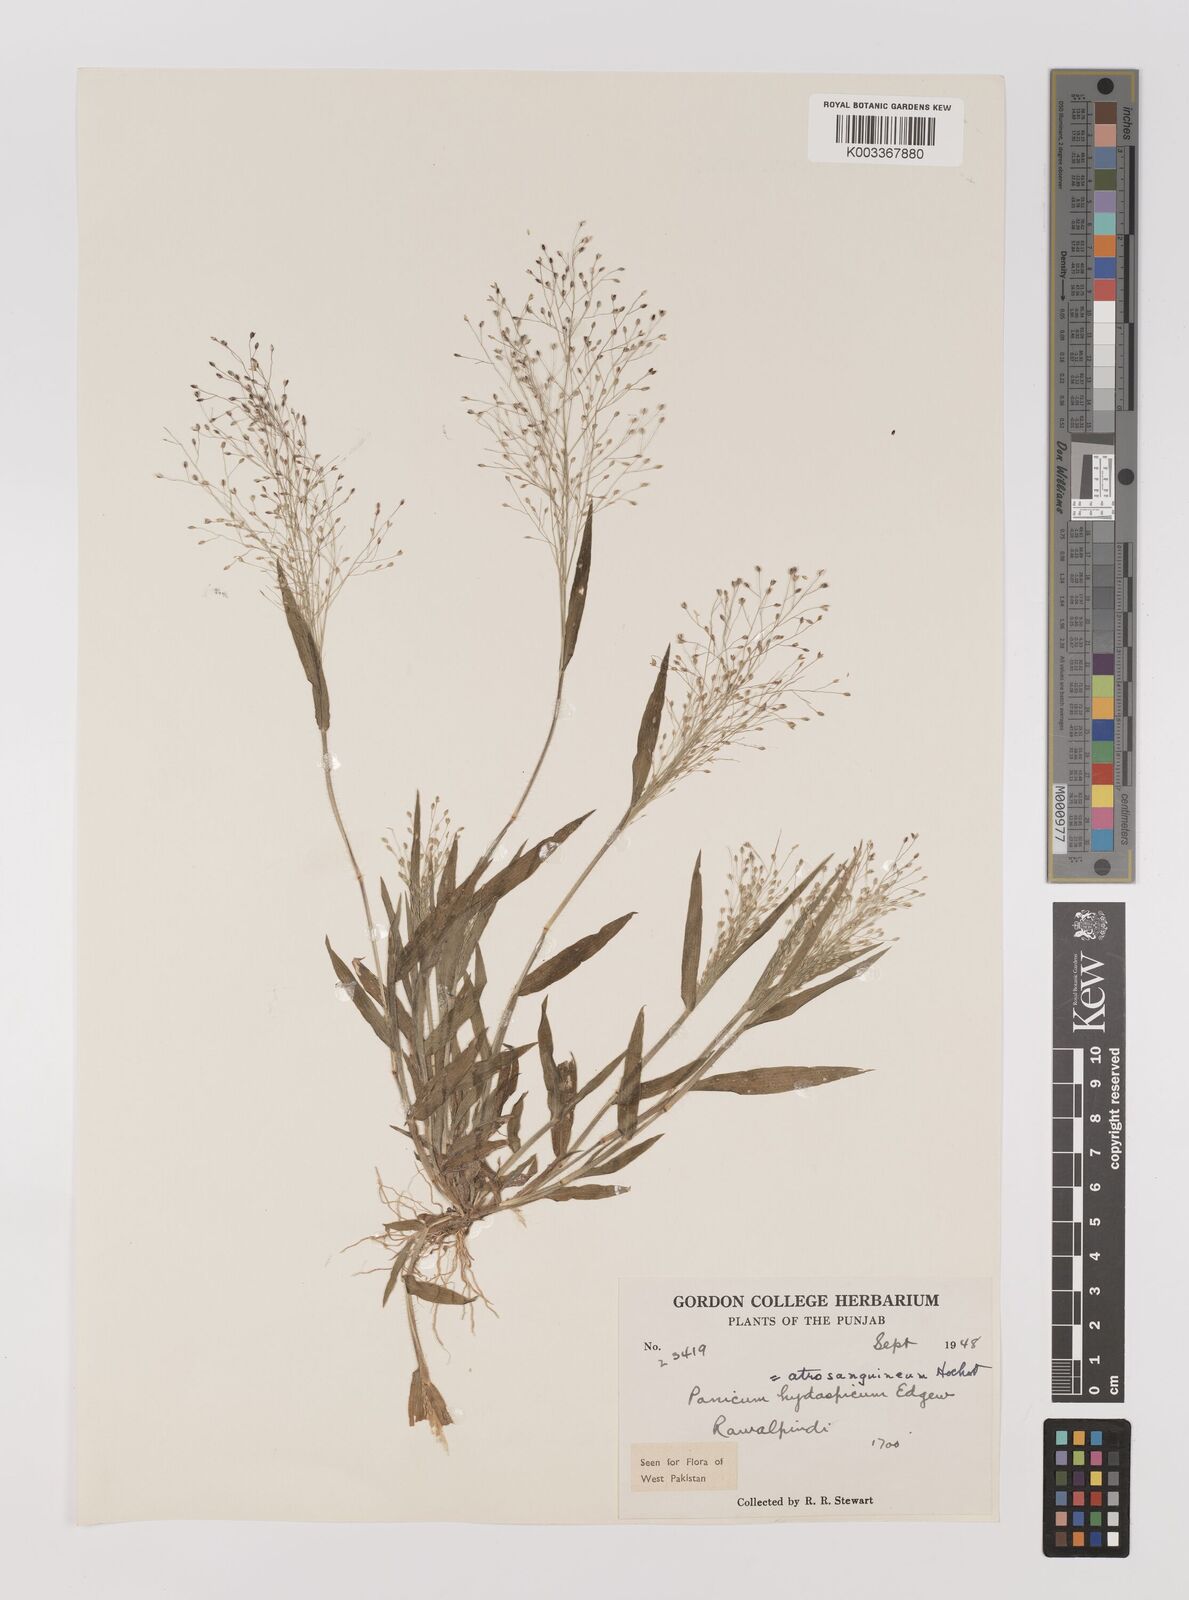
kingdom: Plantae
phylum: Tracheophyta
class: Liliopsida
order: Poales
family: Poaceae
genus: Panicum
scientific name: Panicum atrosanguineum
